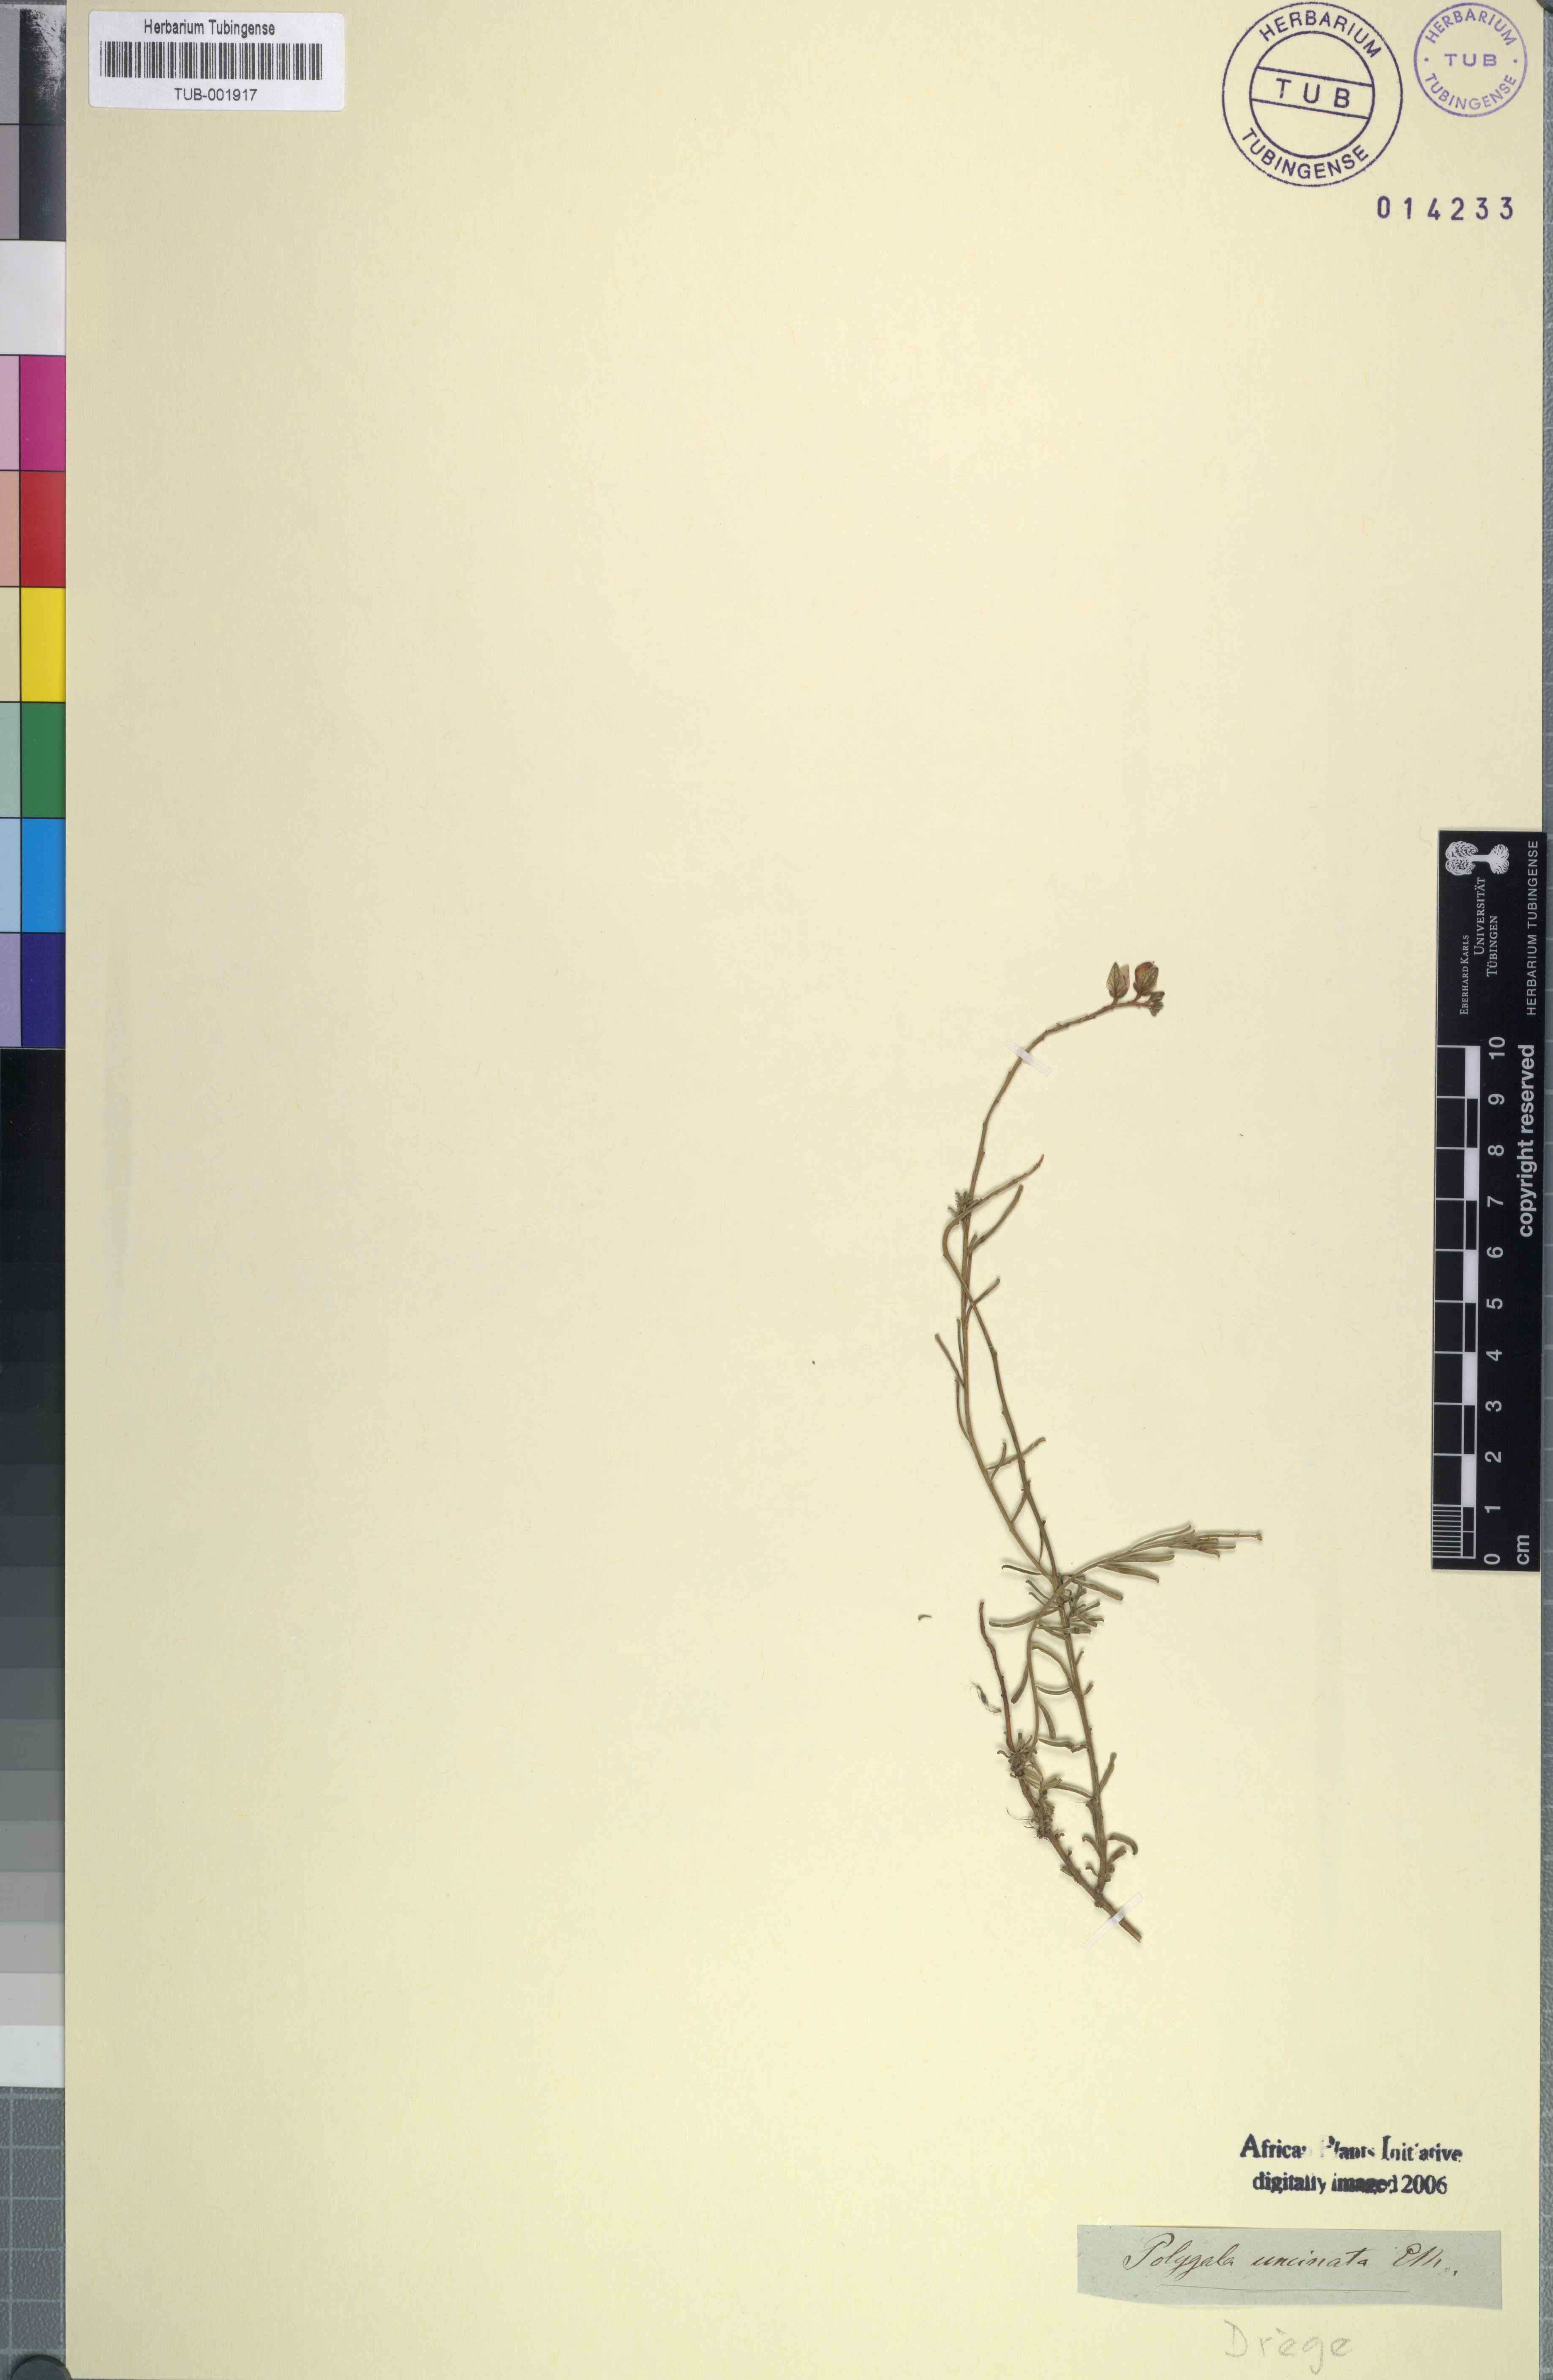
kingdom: Plantae
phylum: Tracheophyta
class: Magnoliopsida
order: Fabales
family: Polygalaceae
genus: Polygala
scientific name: Polygala rarifolia
